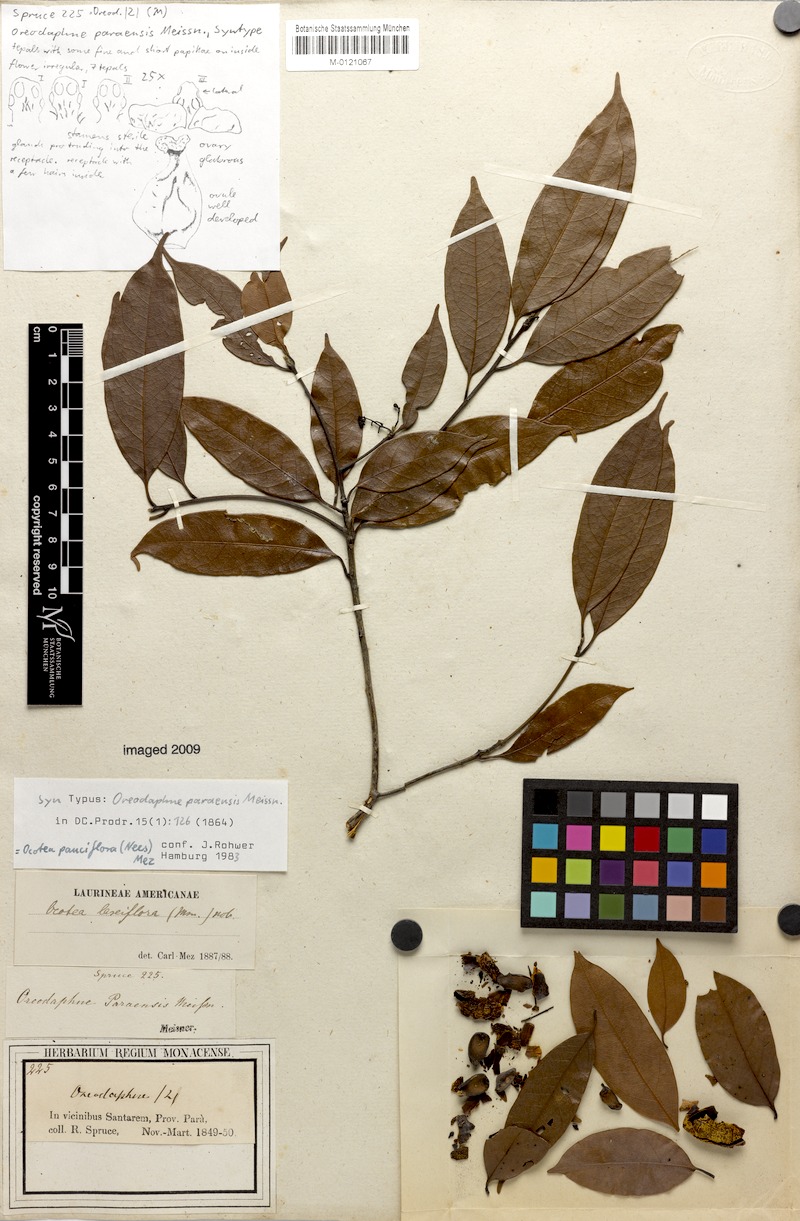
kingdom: Plantae
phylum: Tracheophyta
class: Magnoliopsida
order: Laurales
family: Lauraceae
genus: Ocotea
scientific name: Ocotea pauciflora
